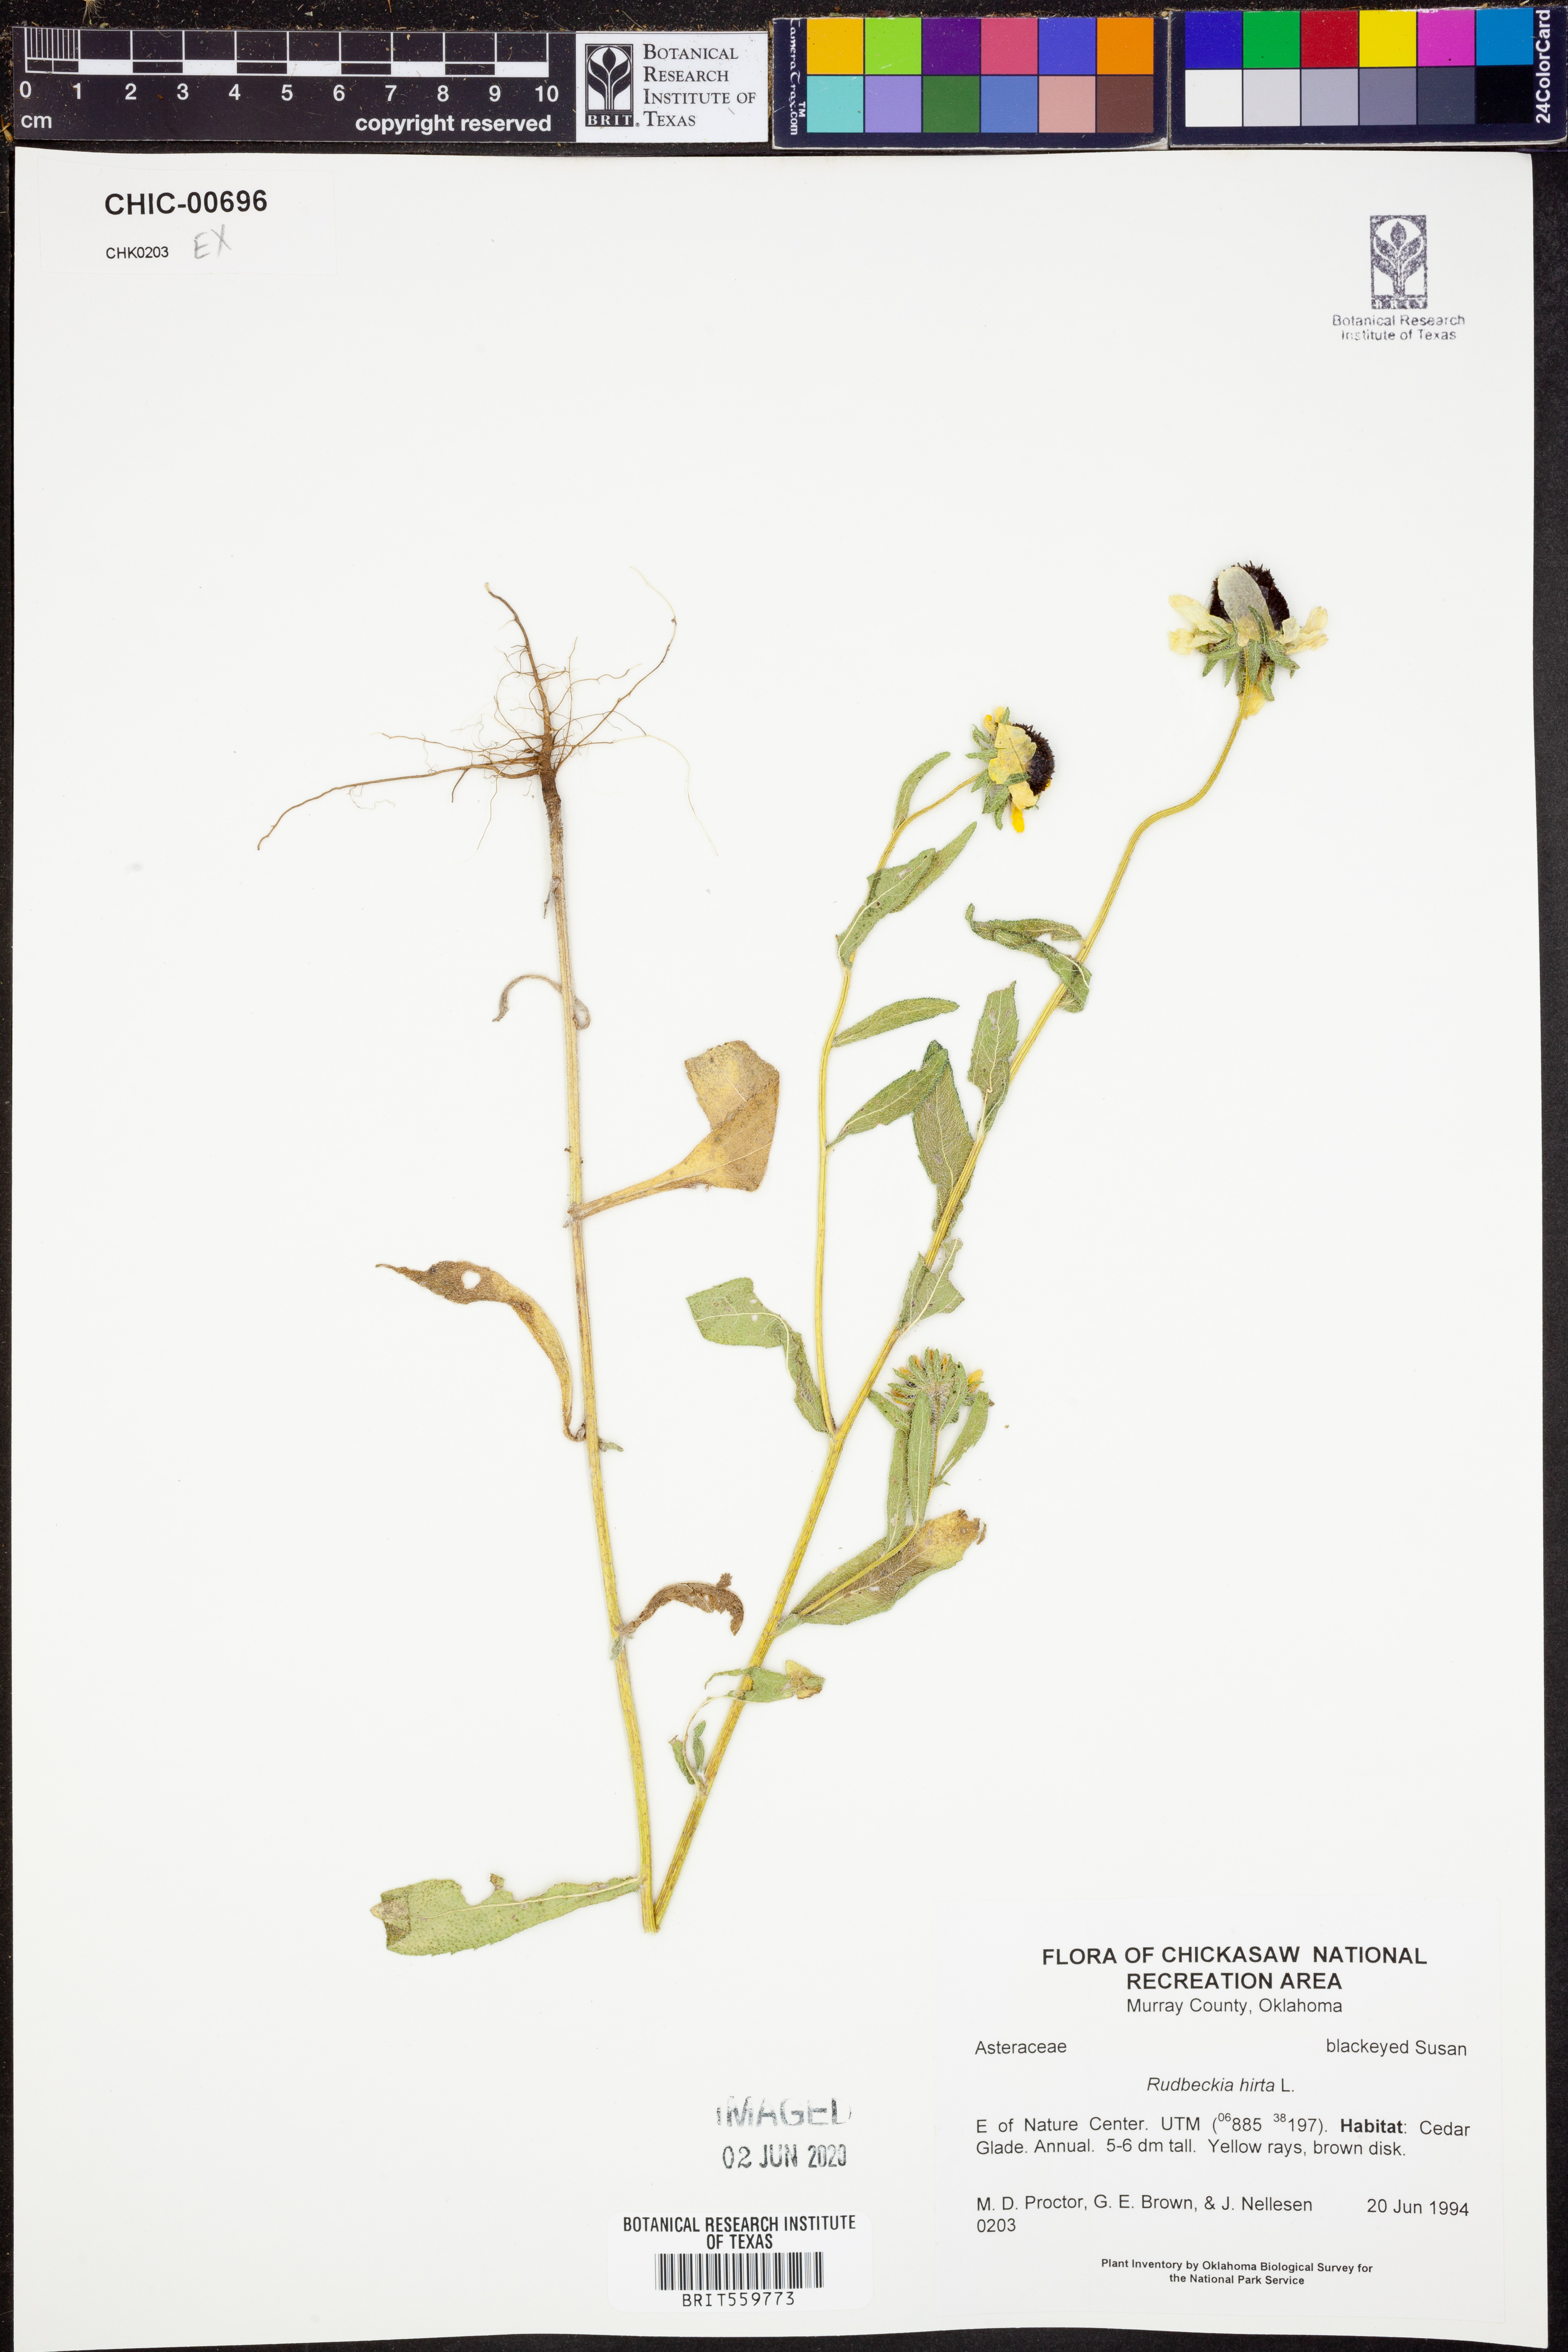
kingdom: Plantae
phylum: Tracheophyta
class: Magnoliopsida
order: Asterales
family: Asteraceae
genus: Rudbeckia
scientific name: Rudbeckia hirta
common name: Black-eyed-susan
